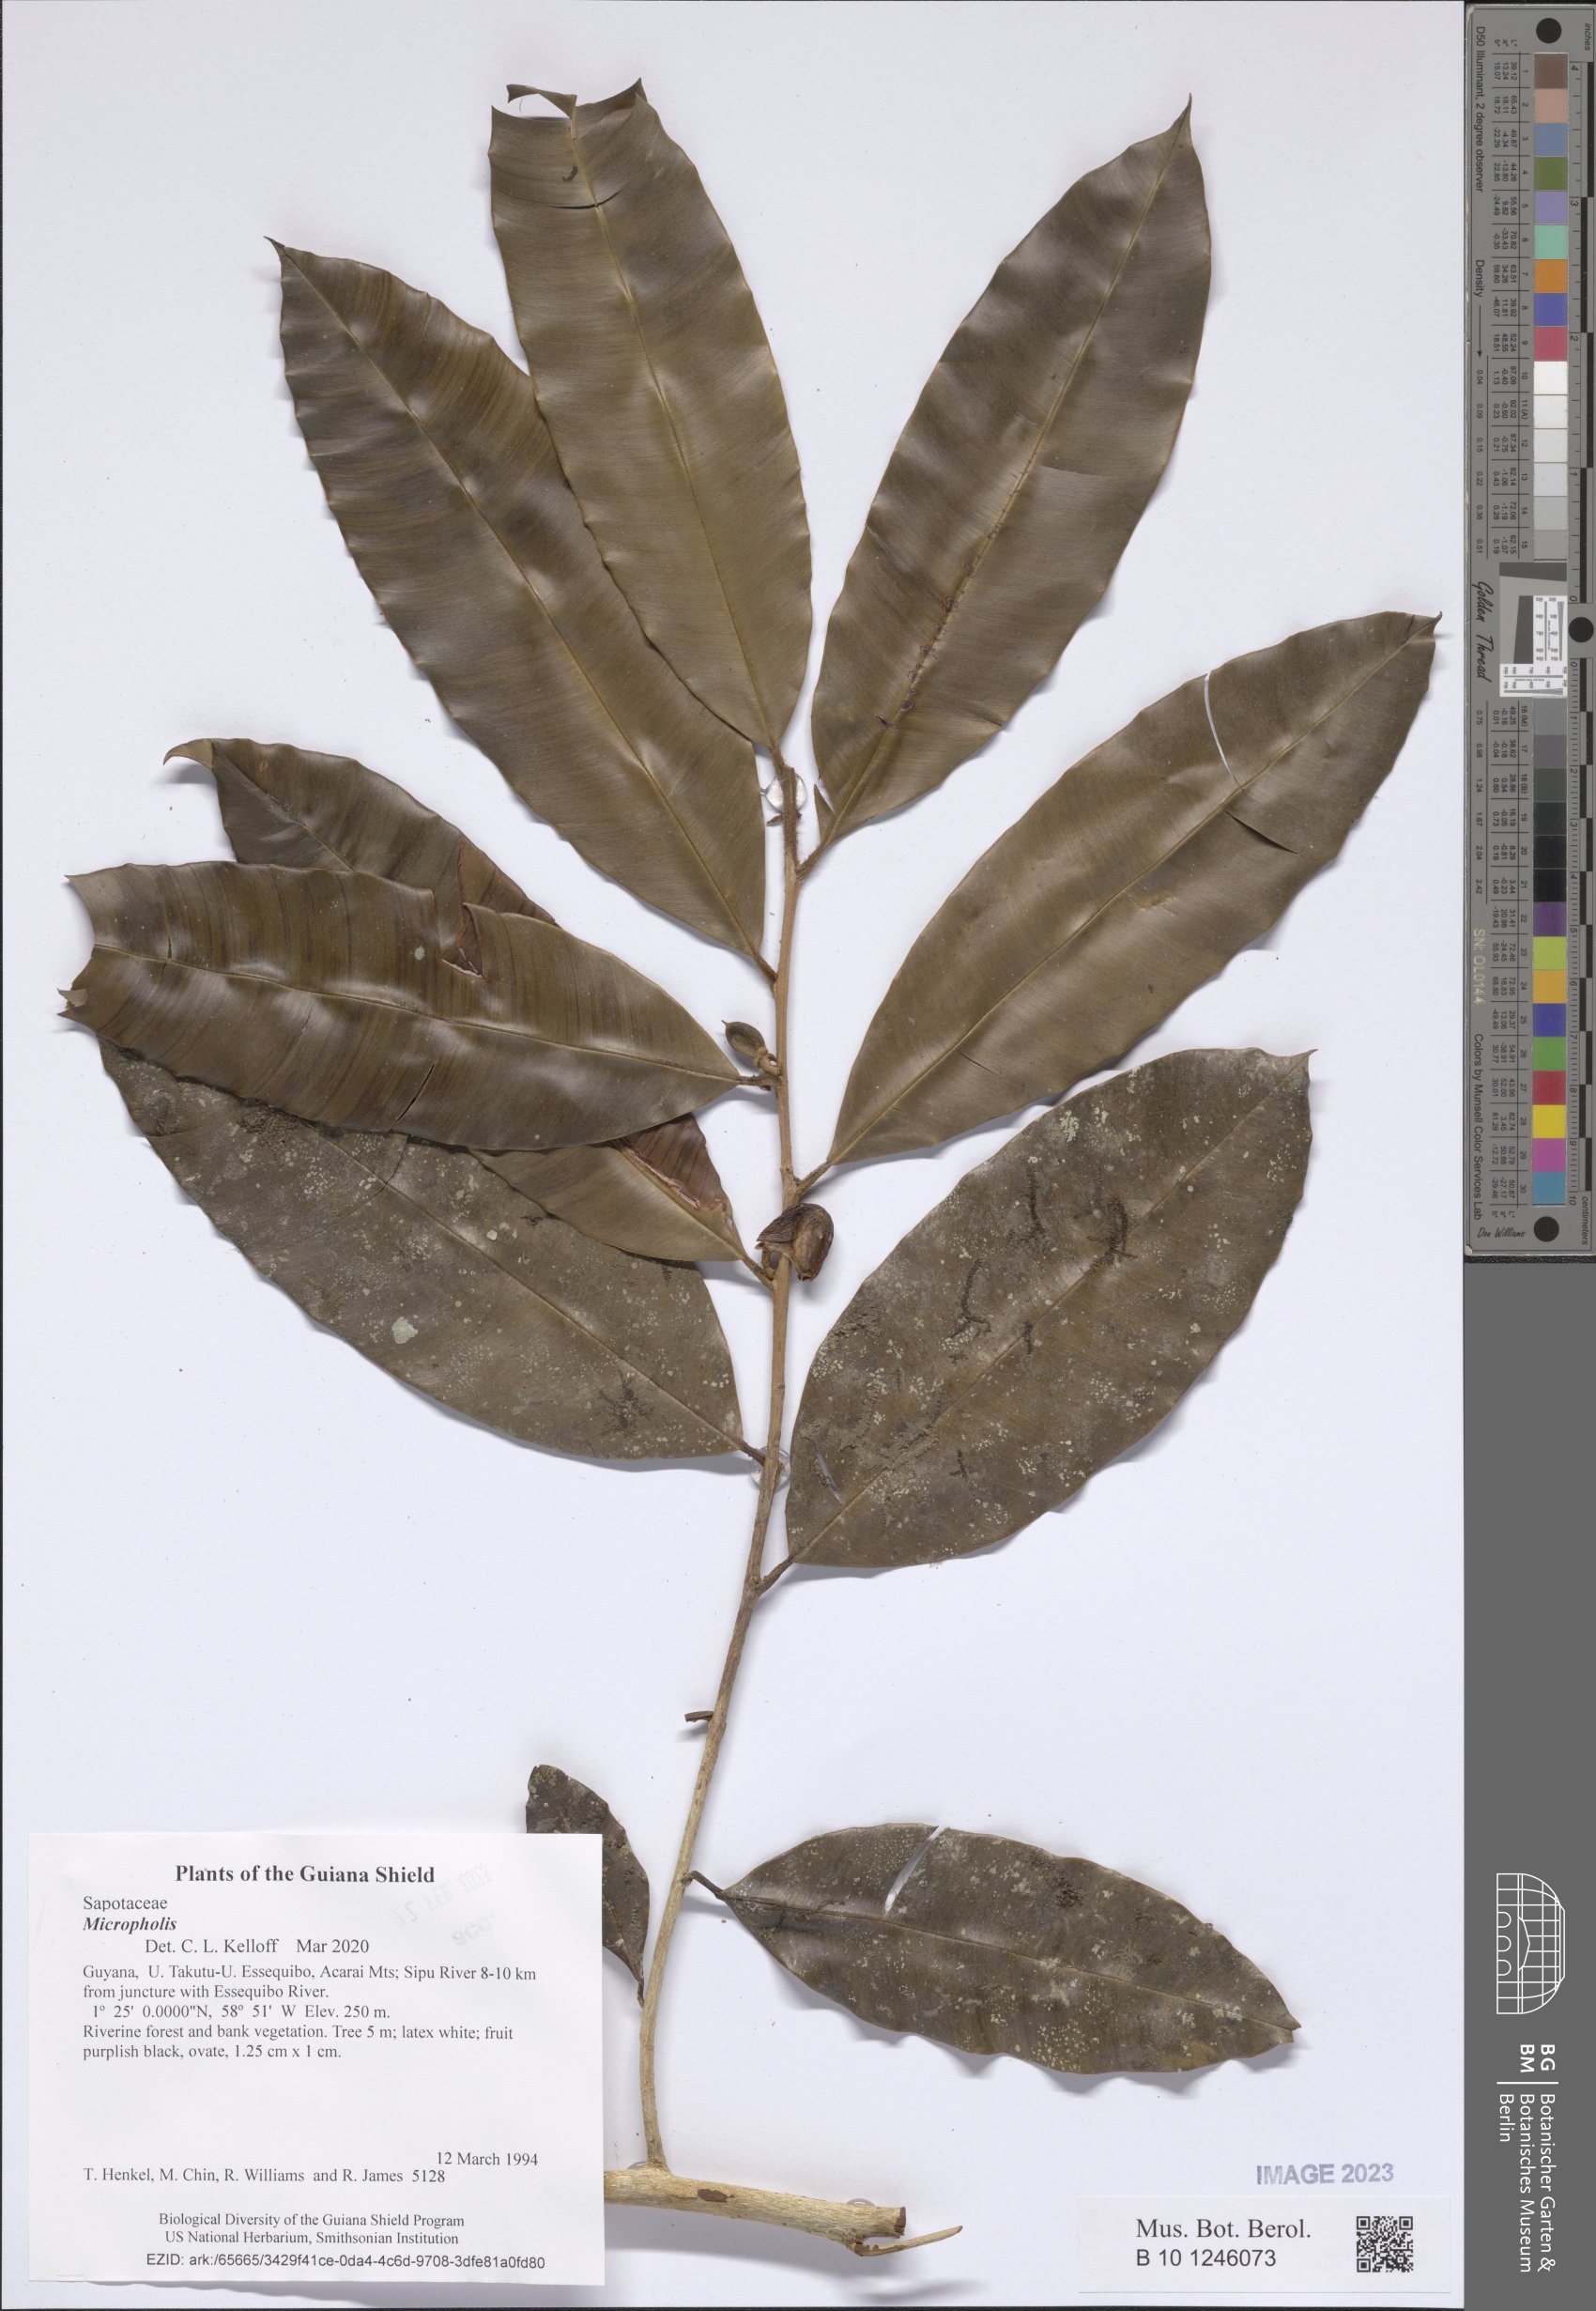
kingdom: Plantae
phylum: Tracheophyta
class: Magnoliopsida
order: Ericales
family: Sapotaceae
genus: Chrysophyllum
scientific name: Chrysophyllum
